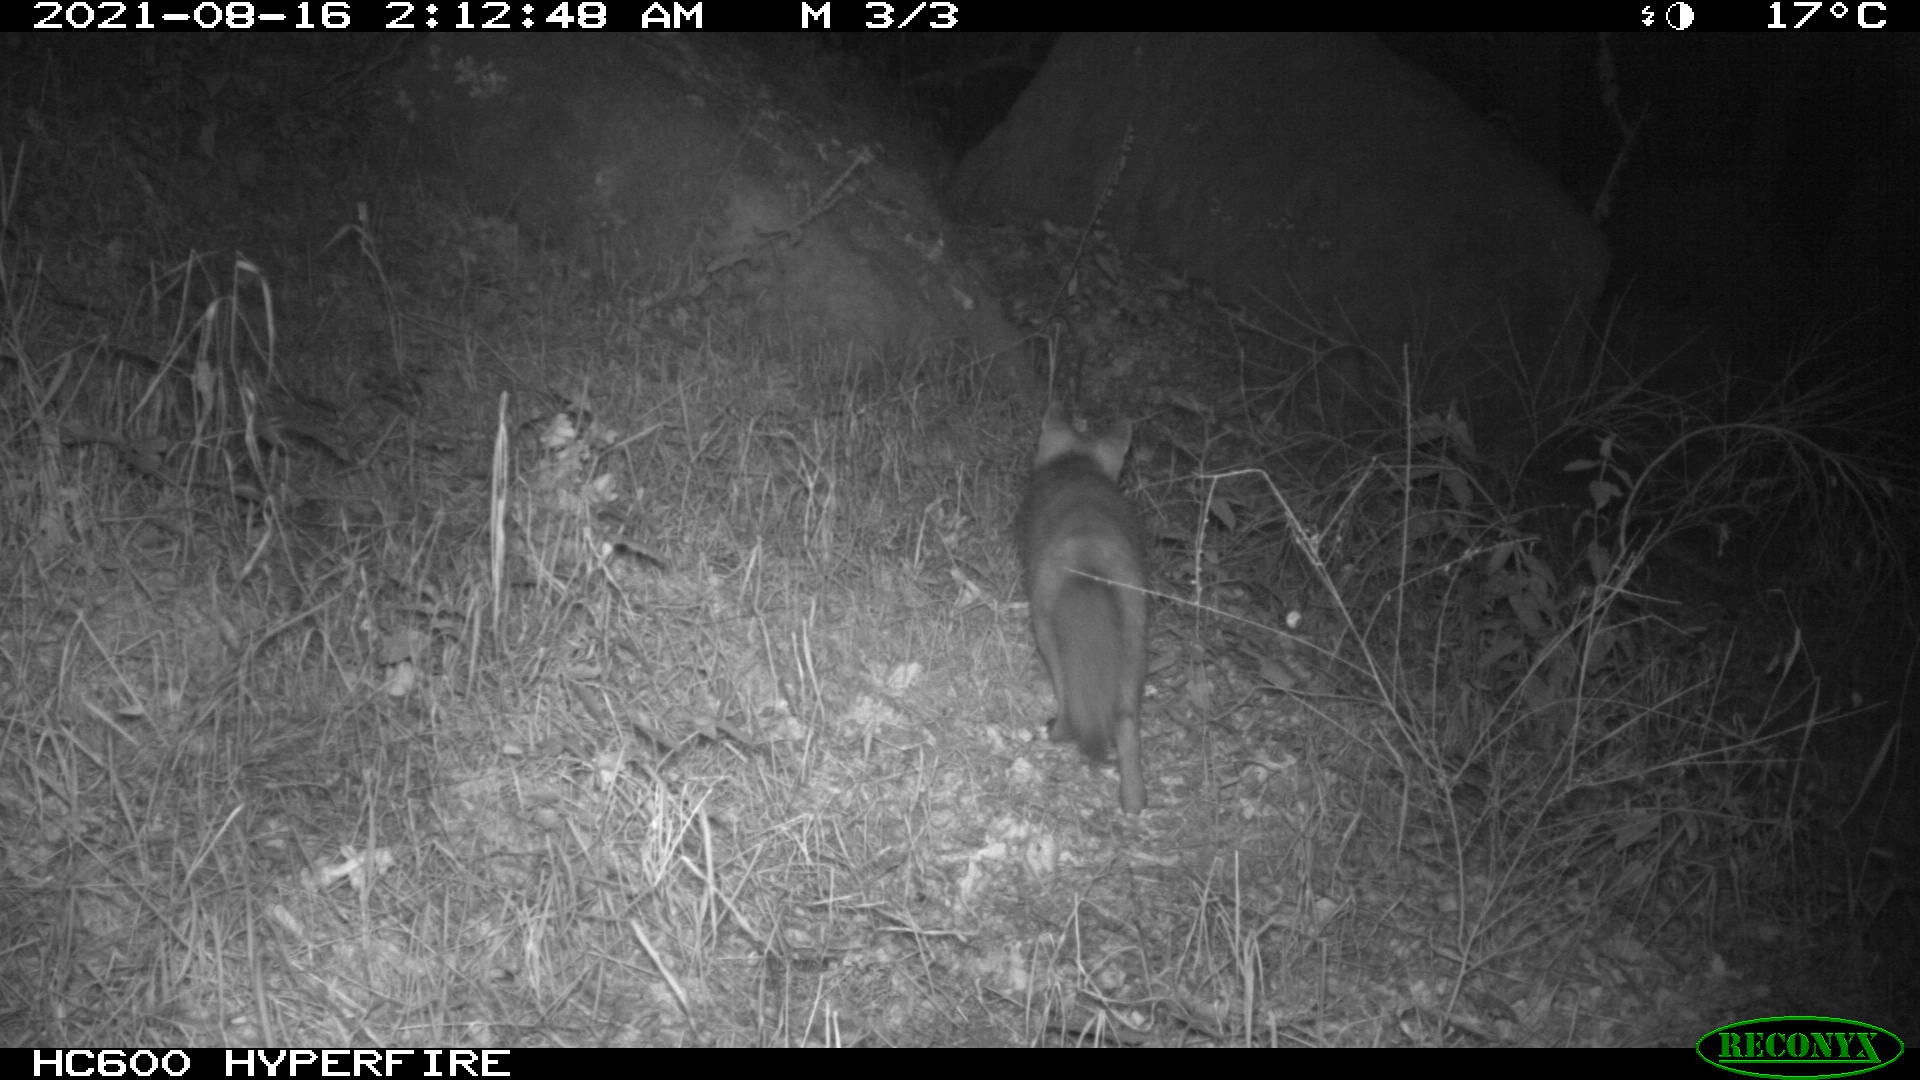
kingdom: Animalia
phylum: Chordata
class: Mammalia
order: Carnivora
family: Canidae
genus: Vulpes
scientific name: Vulpes vulpes
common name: Red fox
